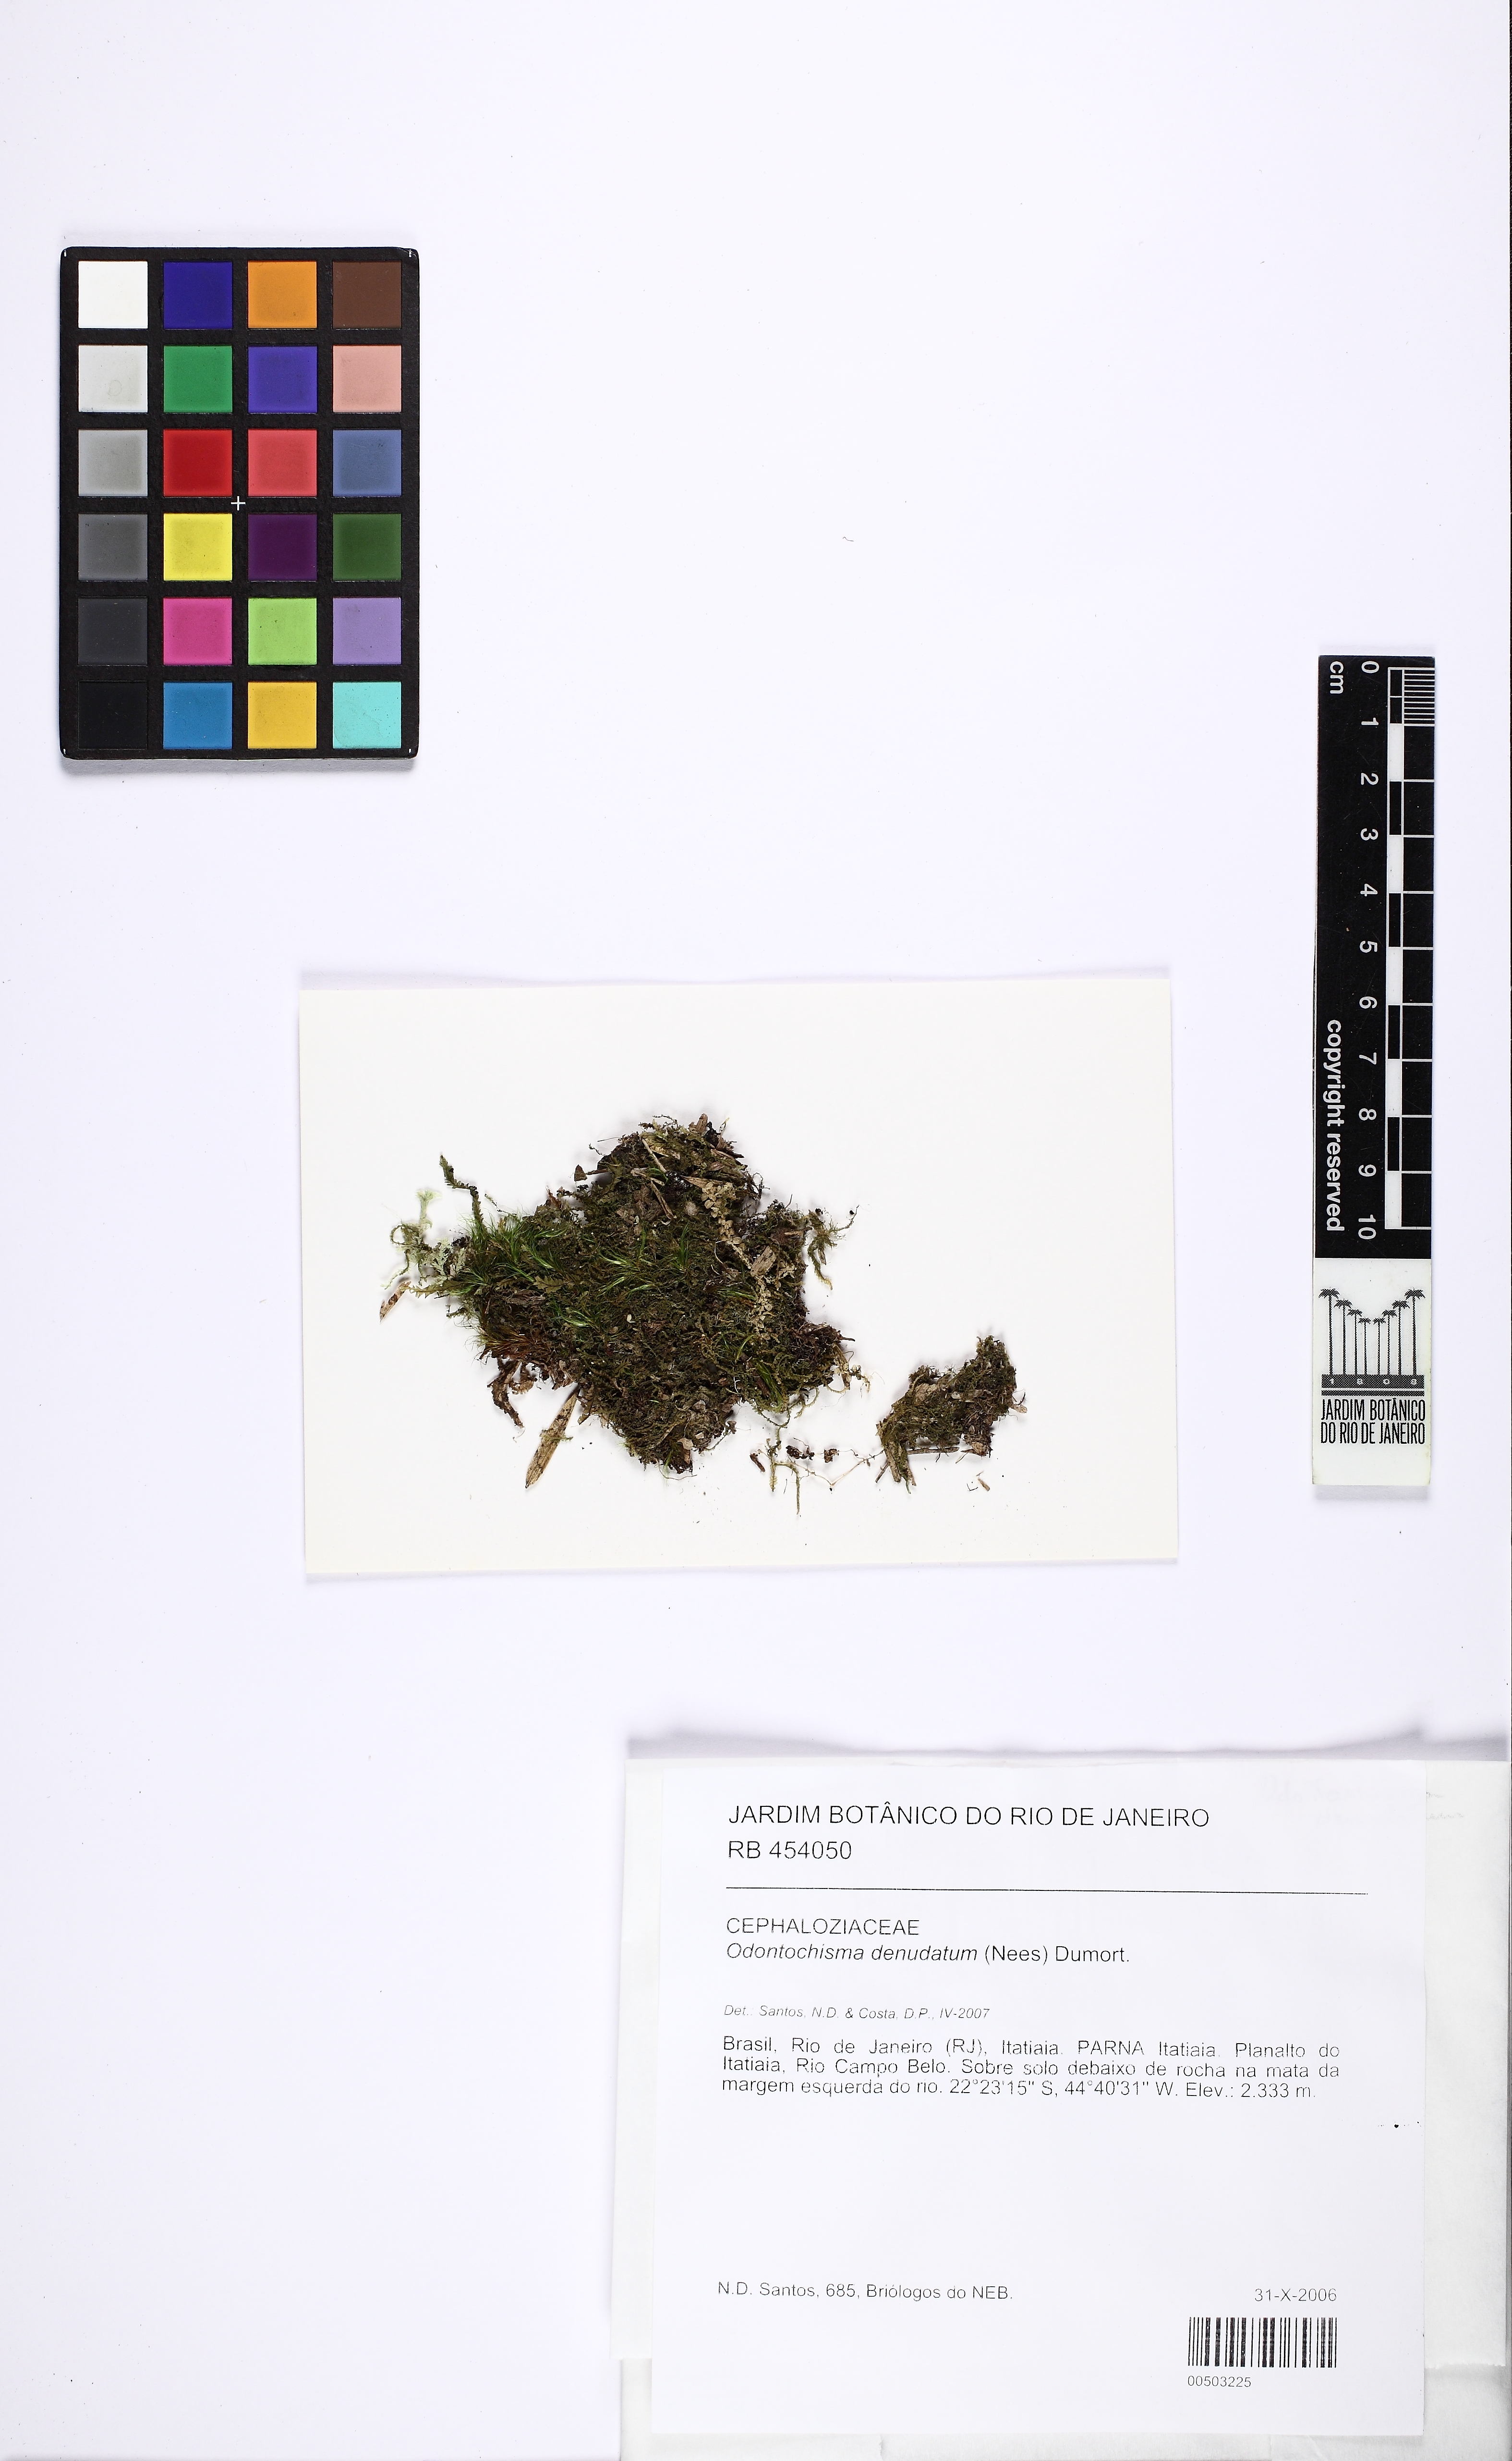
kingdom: Plantae
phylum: Marchantiophyta
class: Jungermanniopsida
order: Jungermanniales
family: Cephaloziellaceae
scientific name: Cephaloziellaceae
